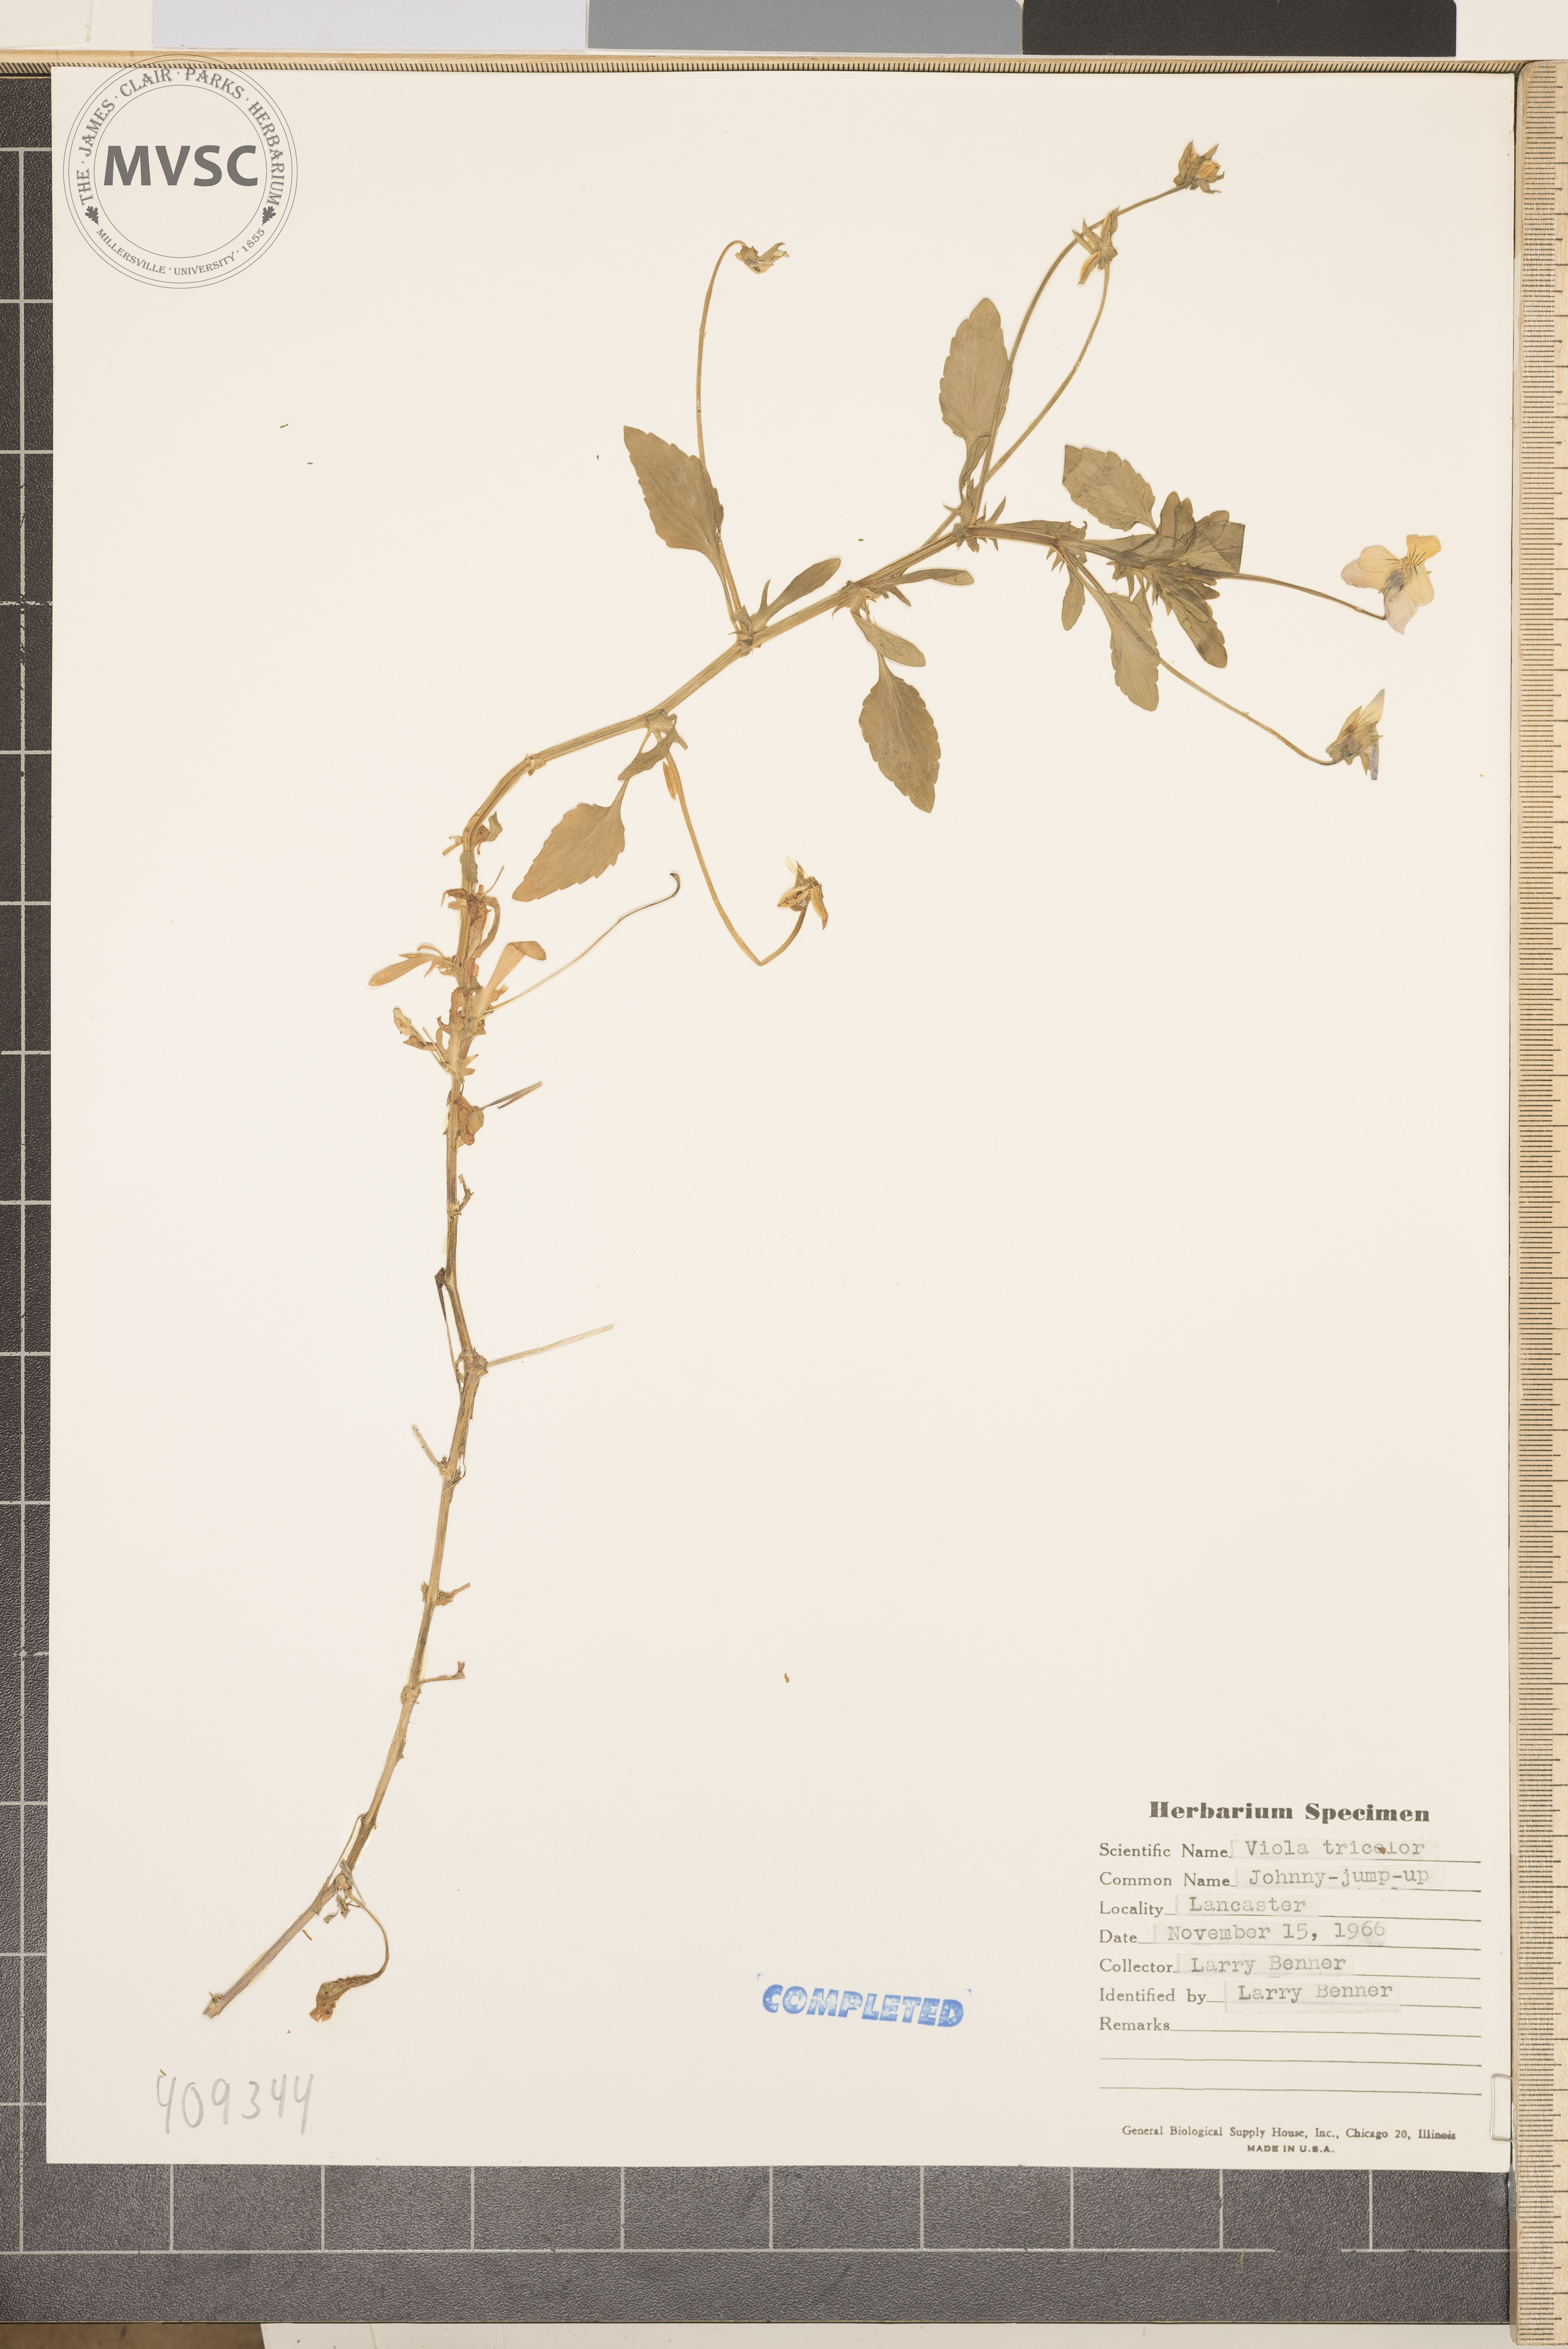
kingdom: Plantae
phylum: Tracheophyta
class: Magnoliopsida
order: Malpighiales
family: Violaceae
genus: Viola
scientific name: Viola tricolor
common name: Pansy
